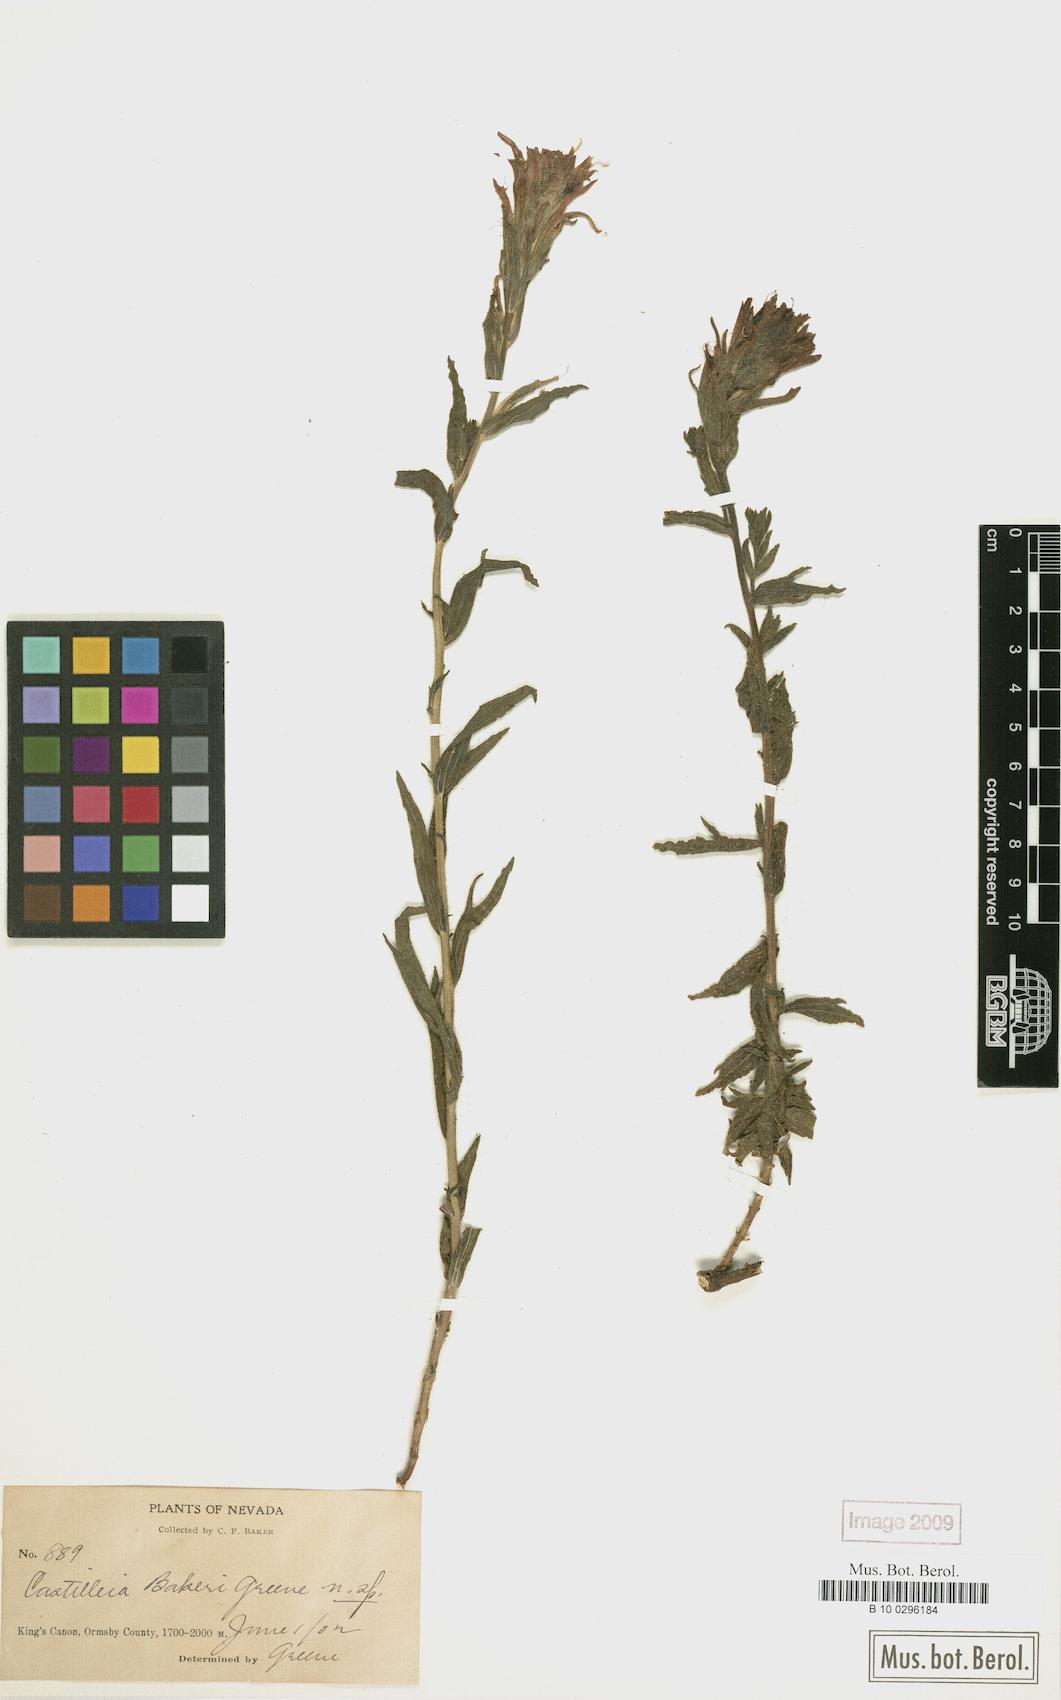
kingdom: Plantae
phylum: Tracheophyta
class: Magnoliopsida
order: Lamiales
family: Orobanchaceae
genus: Castilleja
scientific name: Castilleja bakeri
